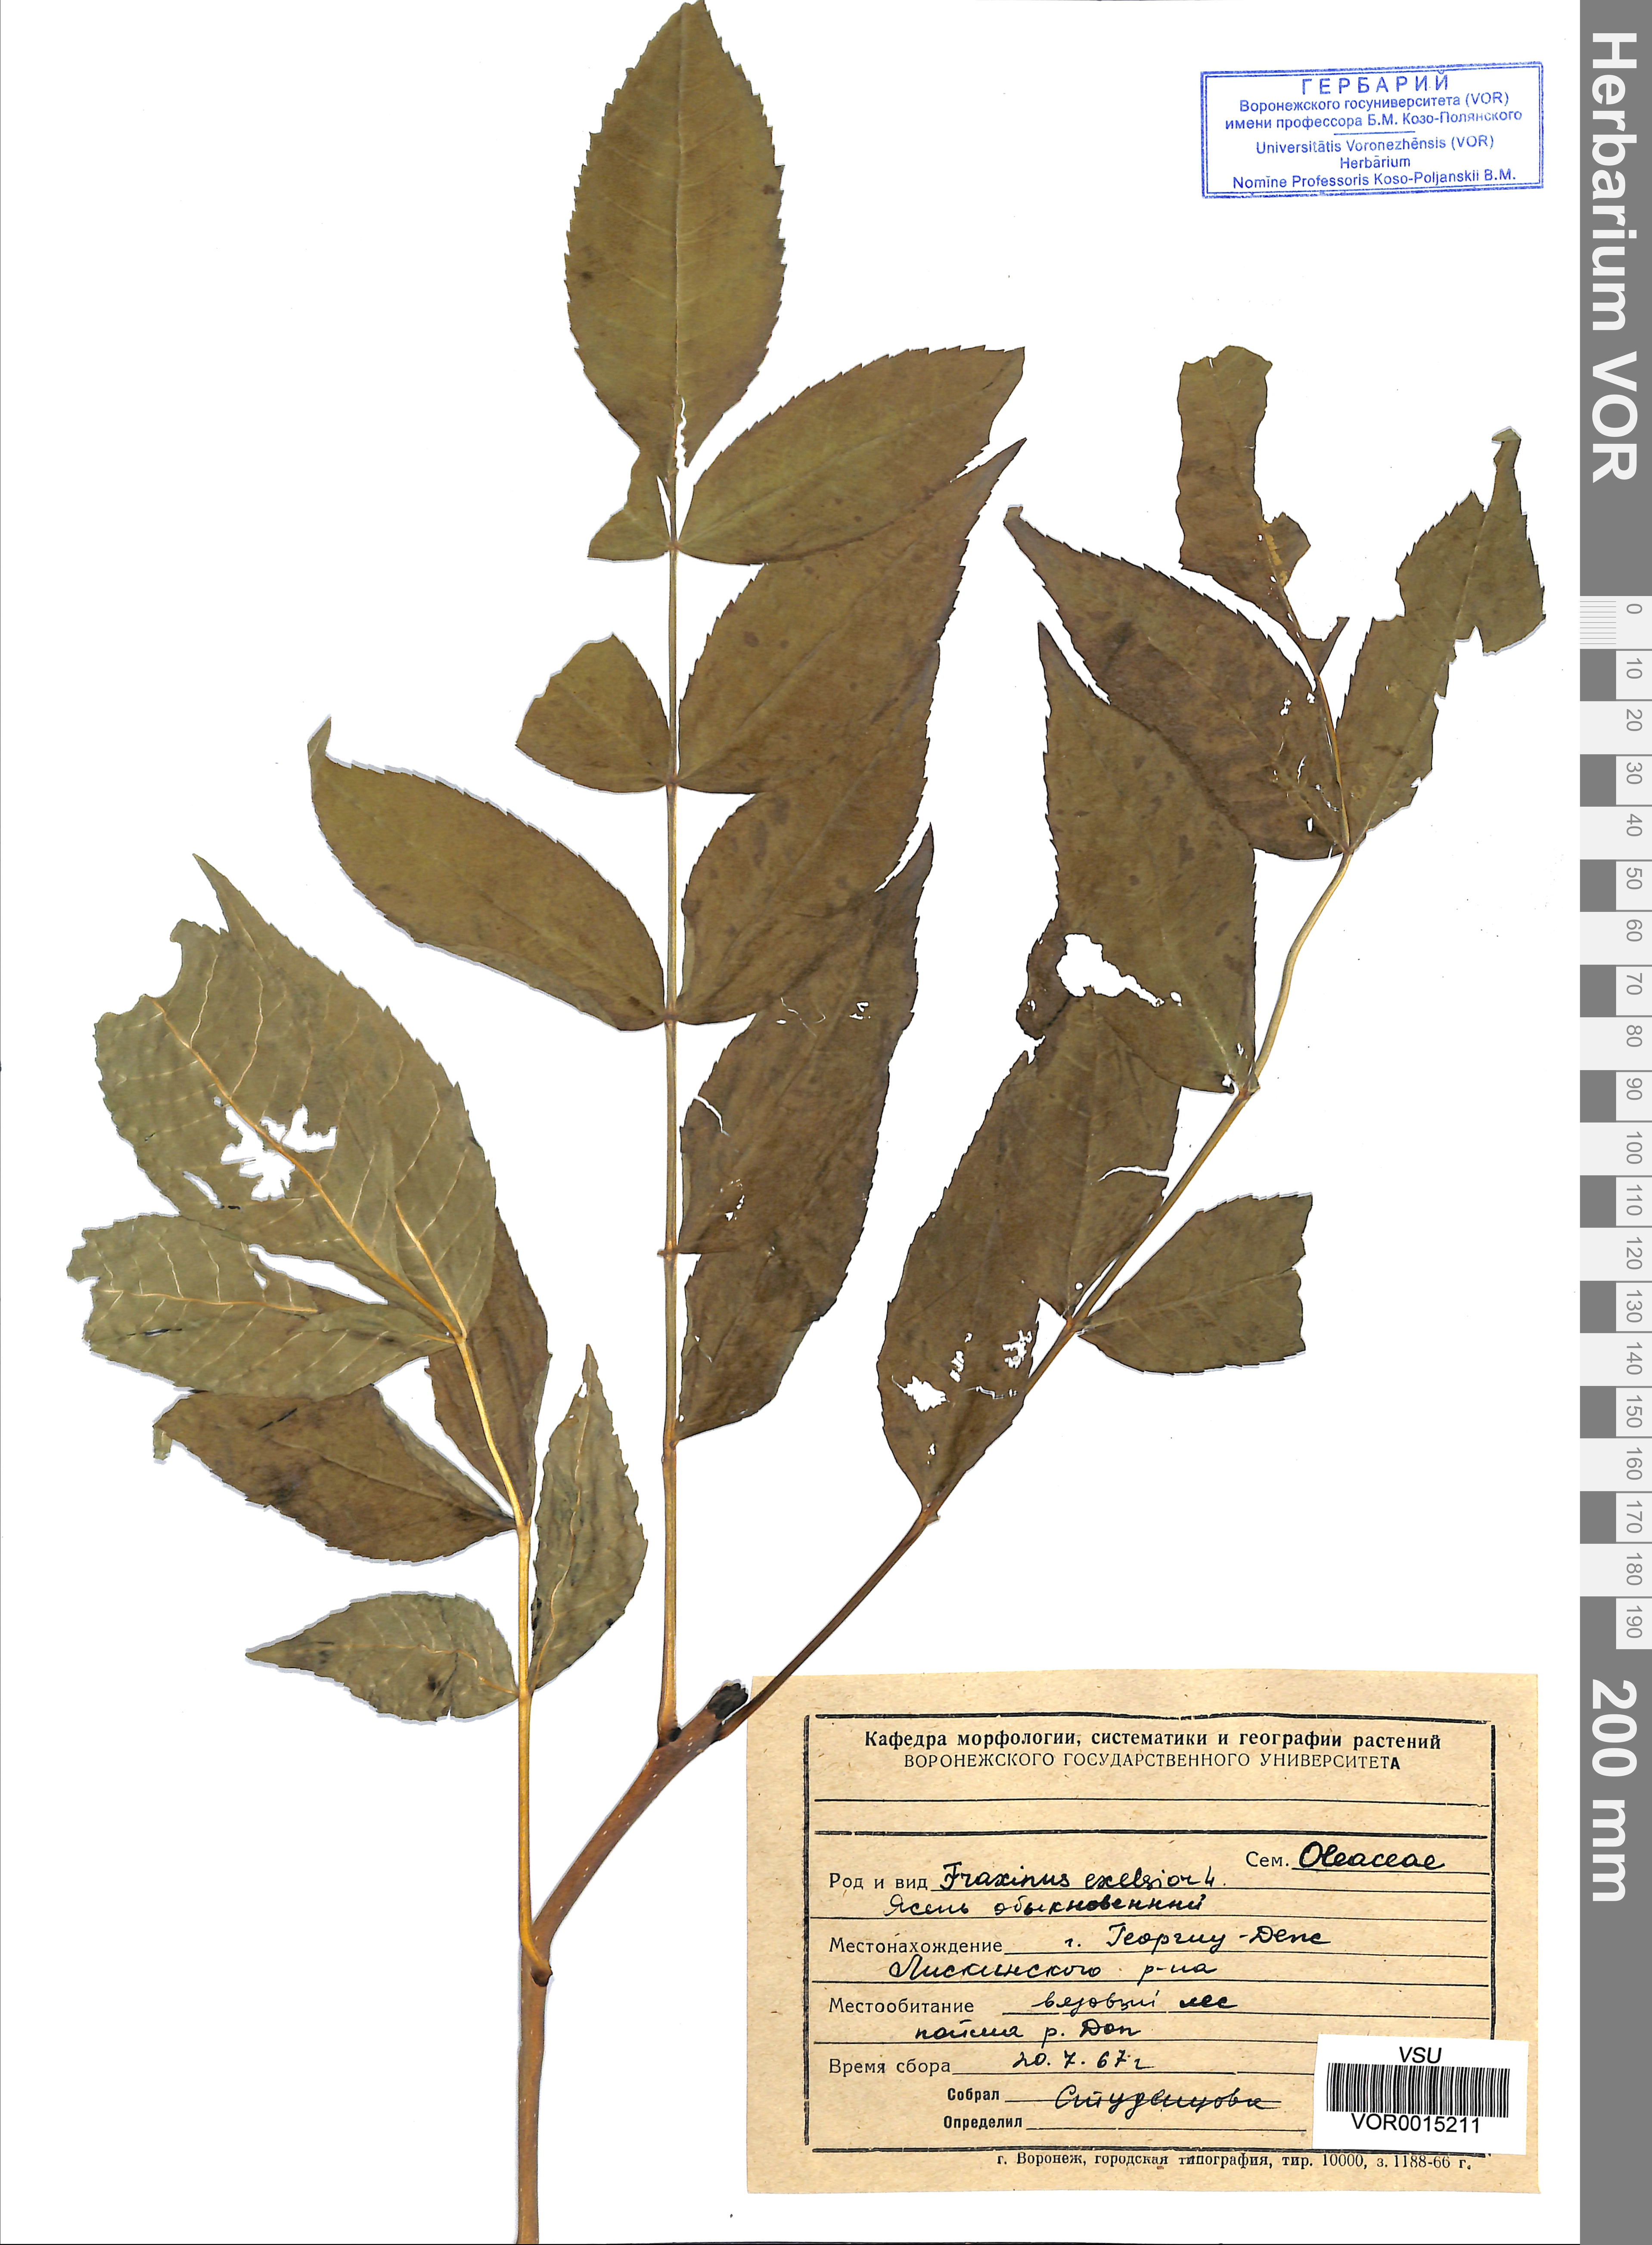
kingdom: Plantae
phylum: Tracheophyta
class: Magnoliopsida
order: Lamiales
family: Oleaceae
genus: Fraxinus
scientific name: Fraxinus excelsior
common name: European ash
